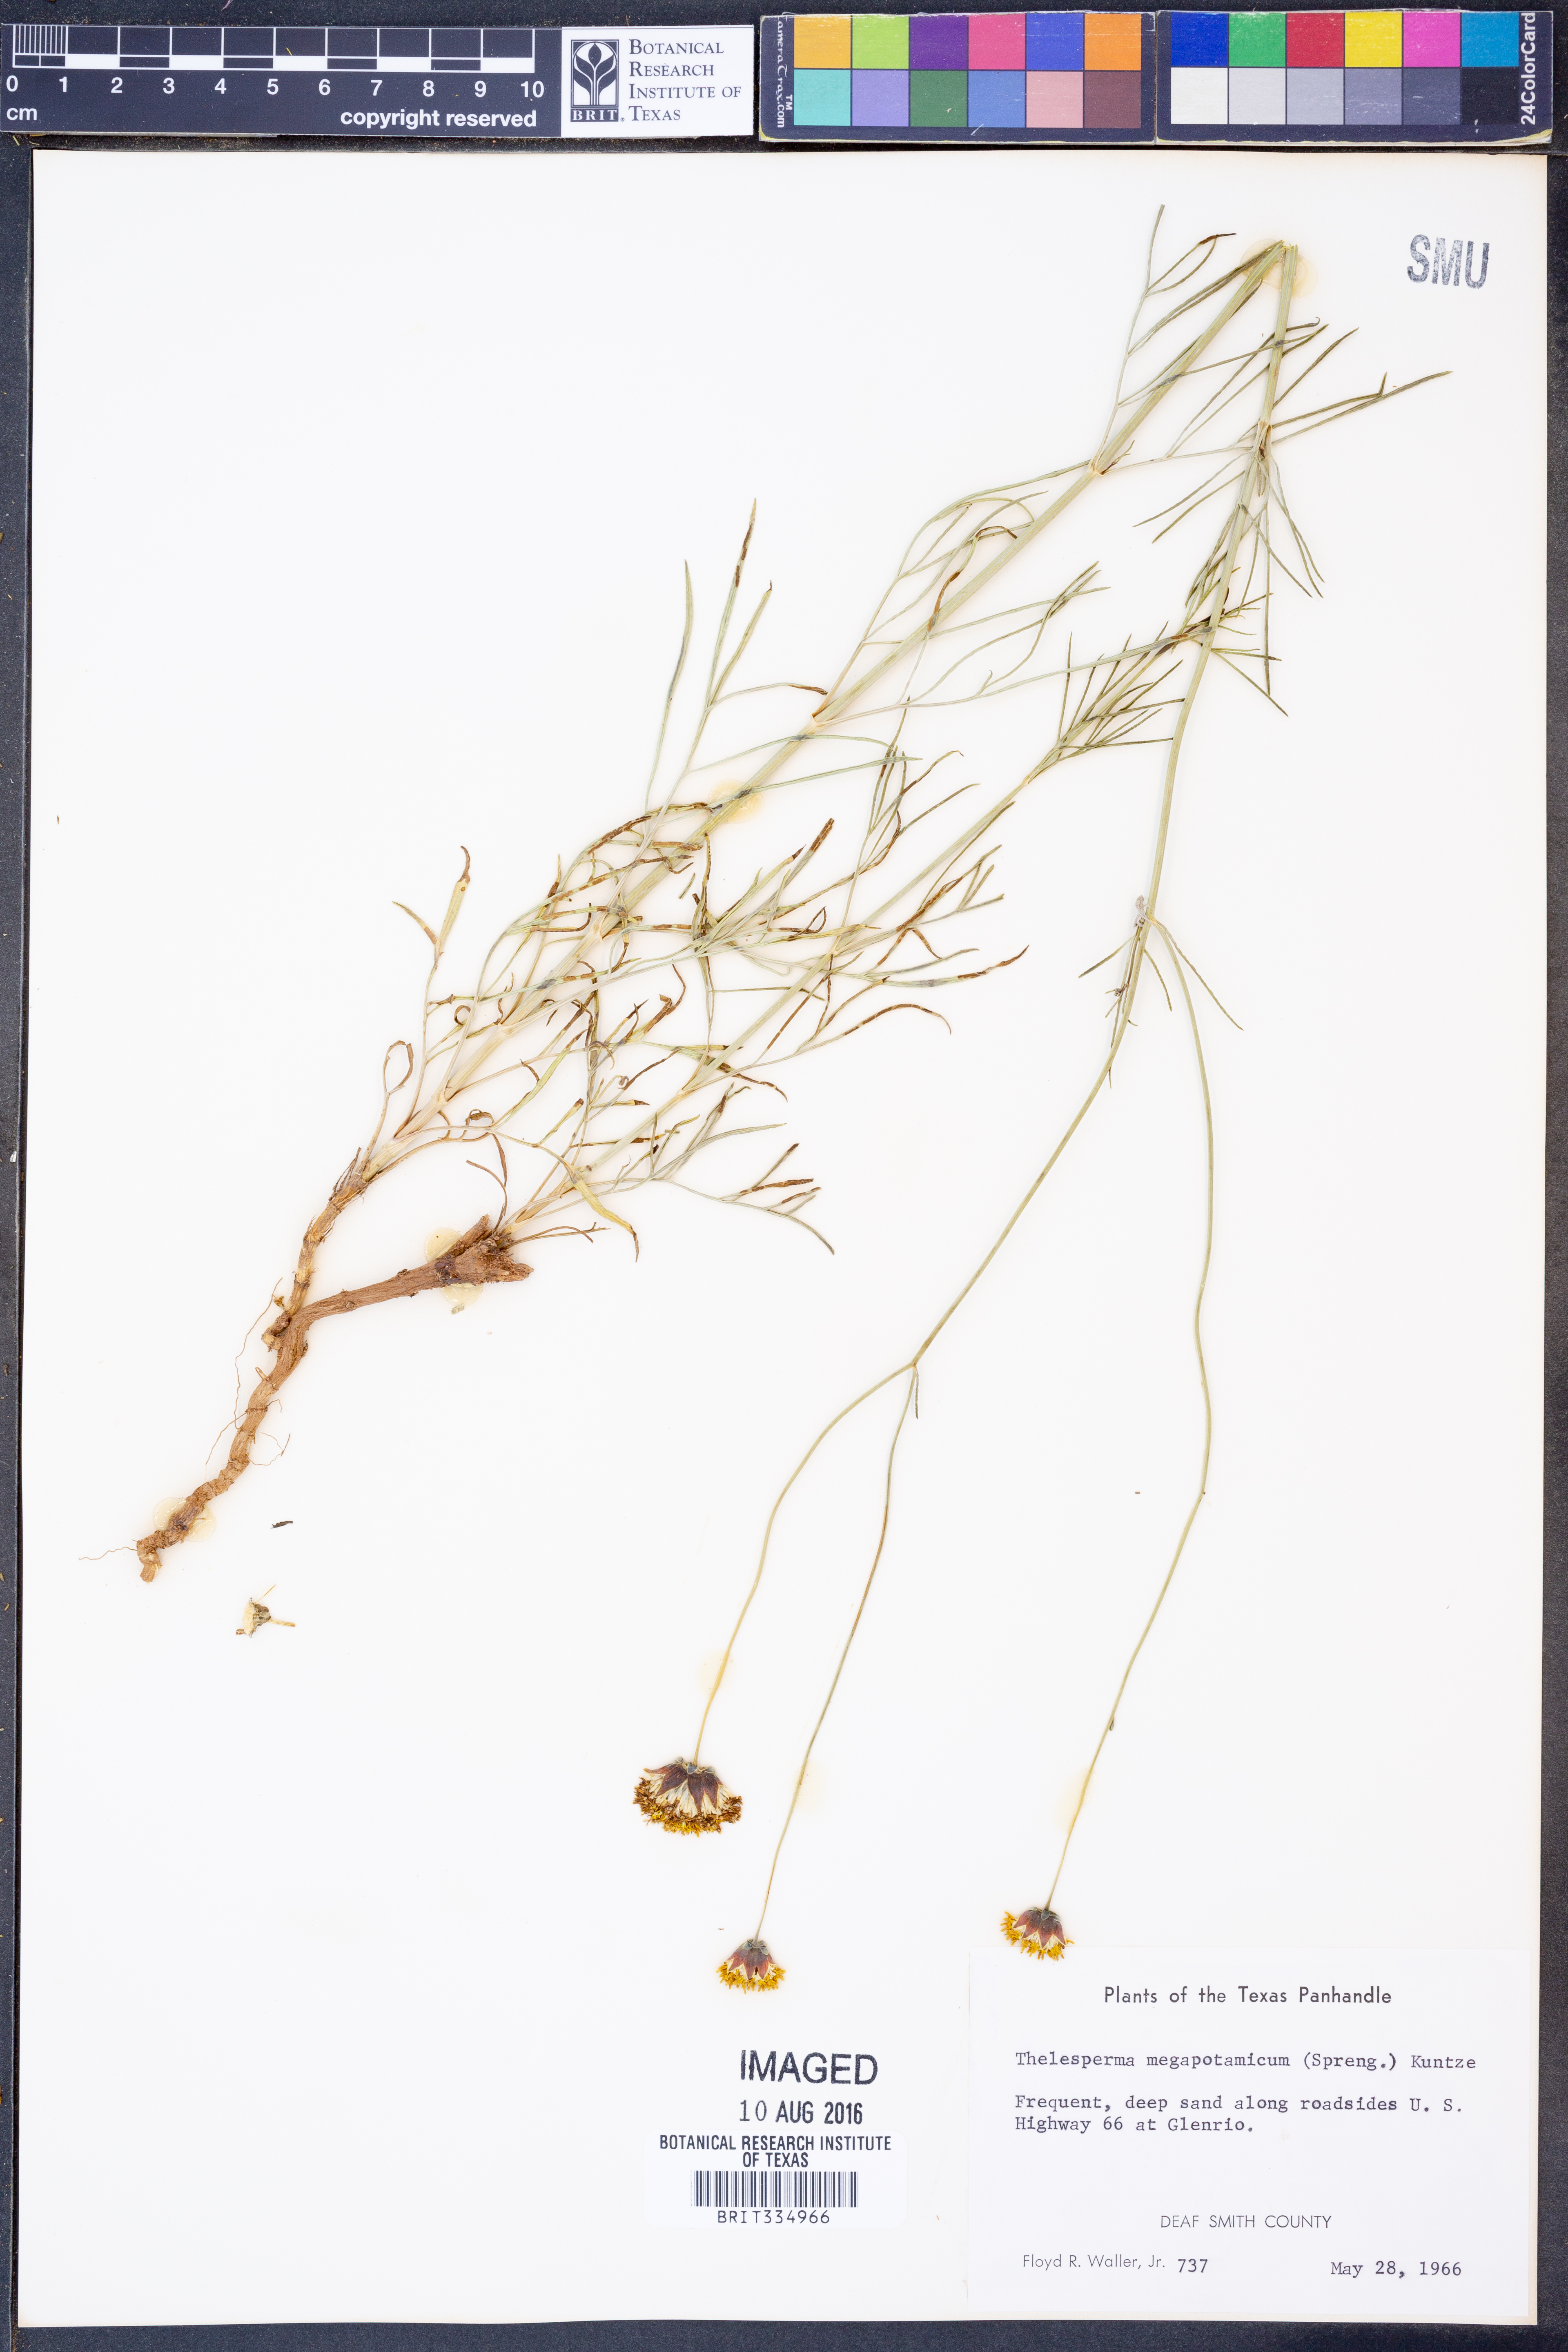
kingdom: Plantae
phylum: Tracheophyta
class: Magnoliopsida
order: Asterales
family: Asteraceae
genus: Thelesperma
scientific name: Thelesperma megapotamicum
